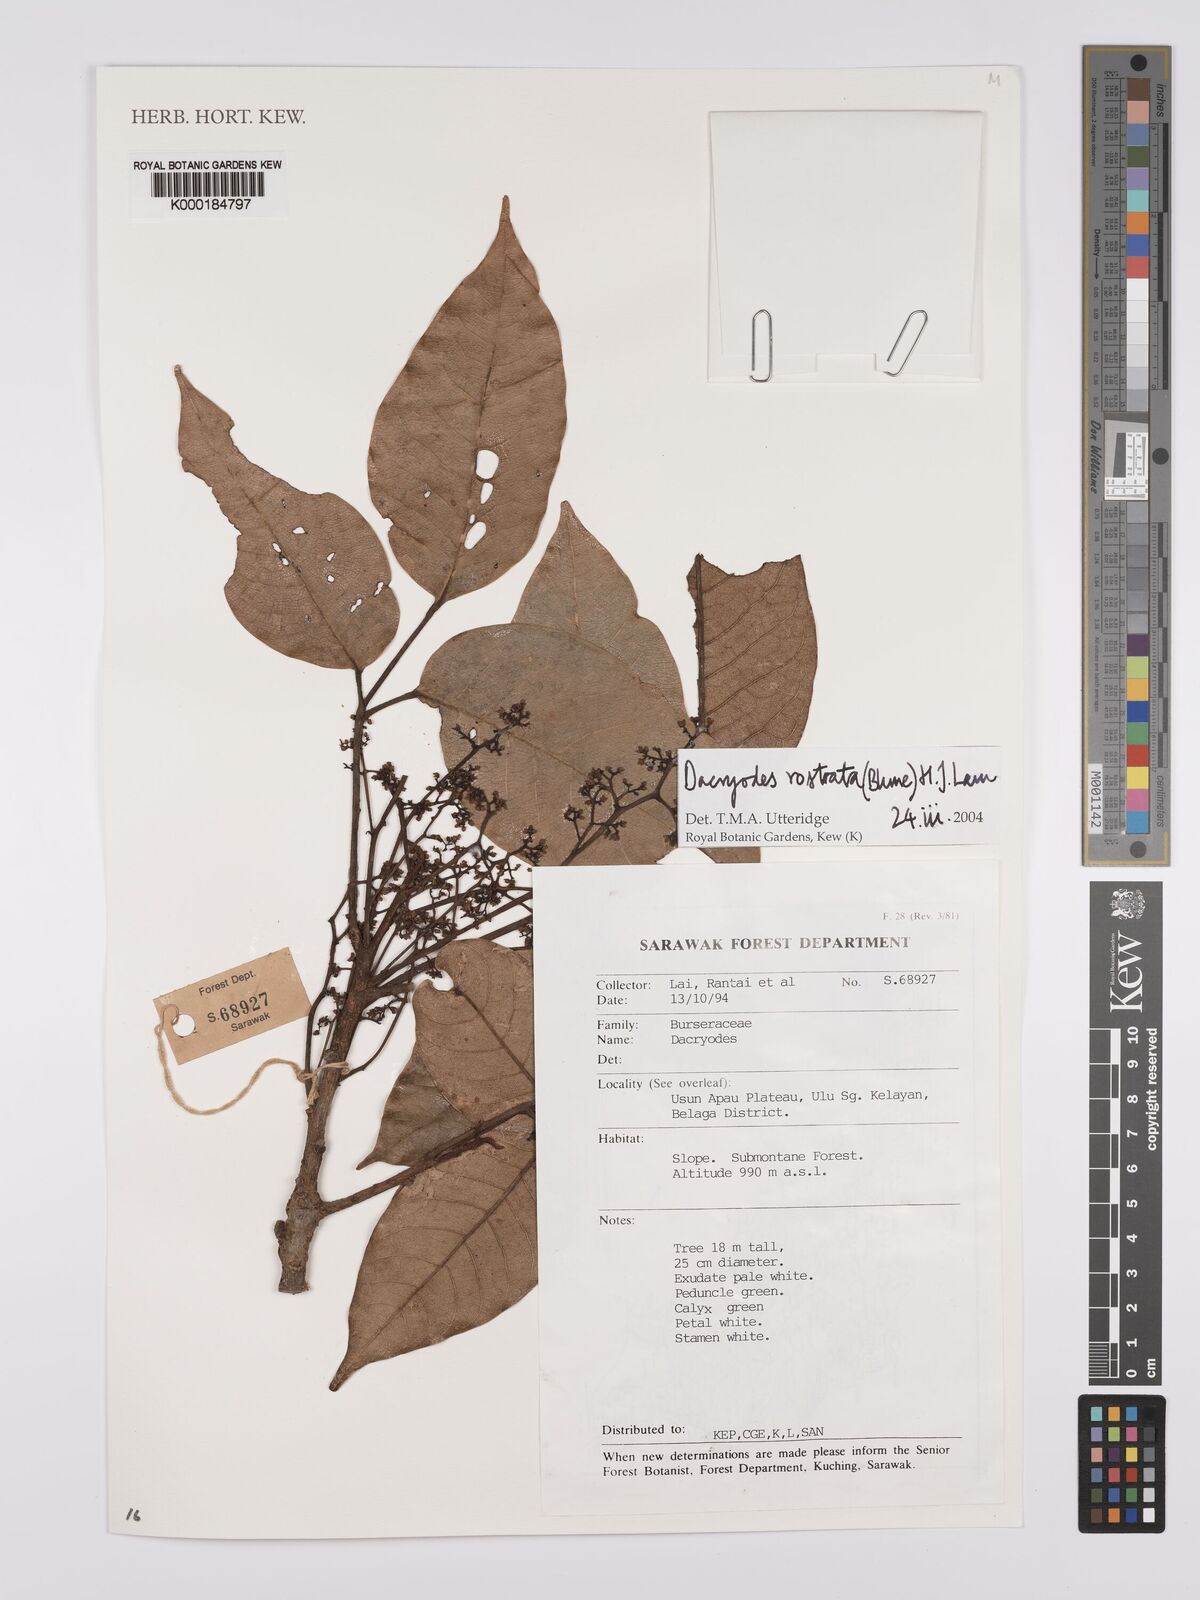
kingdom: Plantae
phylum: Tracheophyta
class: Magnoliopsida
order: Sapindales
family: Burseraceae
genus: Dacryodes
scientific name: Dacryodes rostrata
